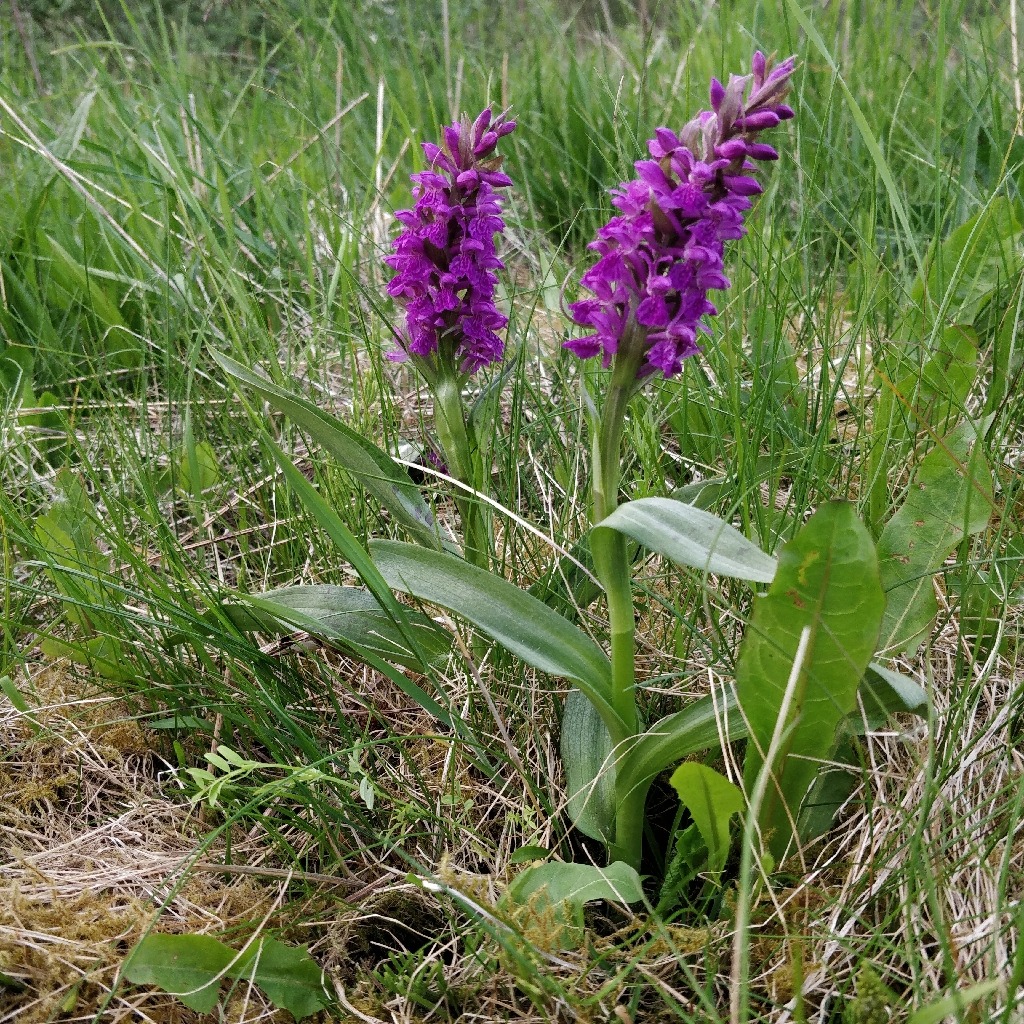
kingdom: Plantae
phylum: Tracheophyta
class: Liliopsida
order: Asparagales
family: Orchidaceae
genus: Dactylorhiza
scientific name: Dactylorhiza majalis
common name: Maj-gøgeurt
